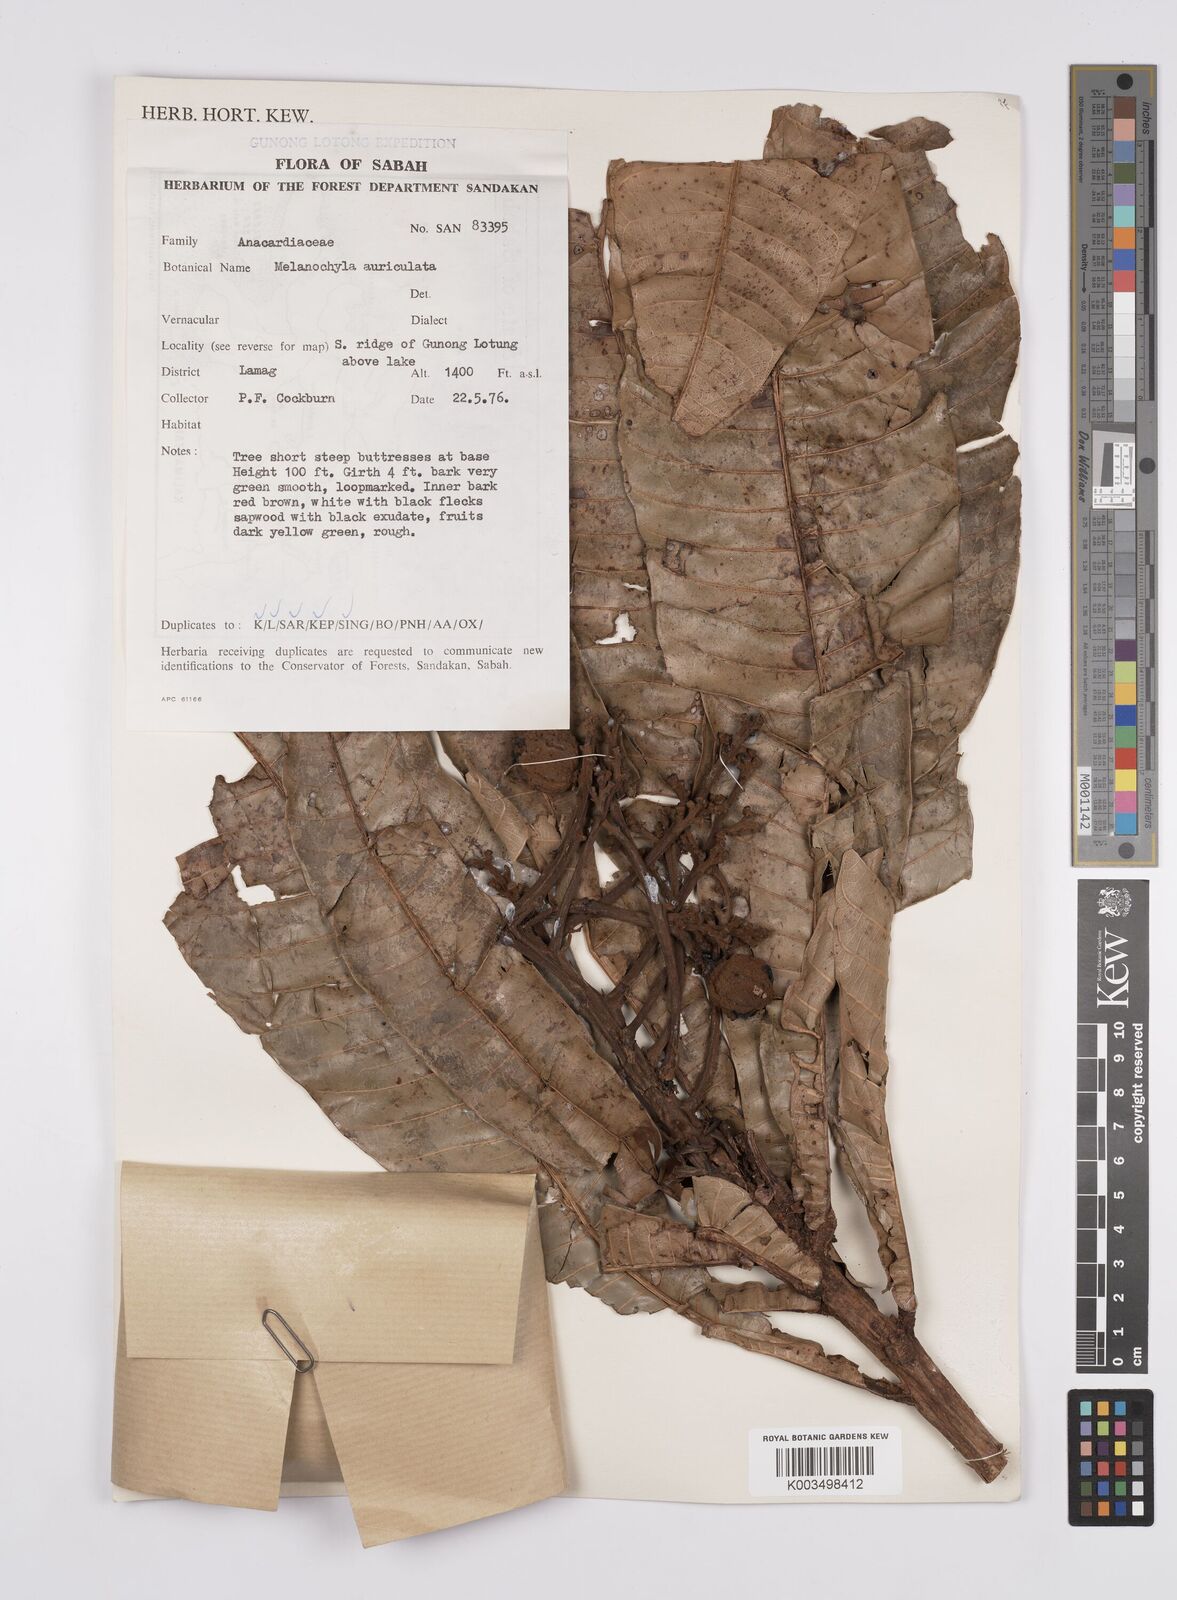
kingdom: Plantae
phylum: Tracheophyta
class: Magnoliopsida
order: Sapindales
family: Anacardiaceae
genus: Melanochyla
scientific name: Melanochyla auriculata
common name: Swamp rengas
